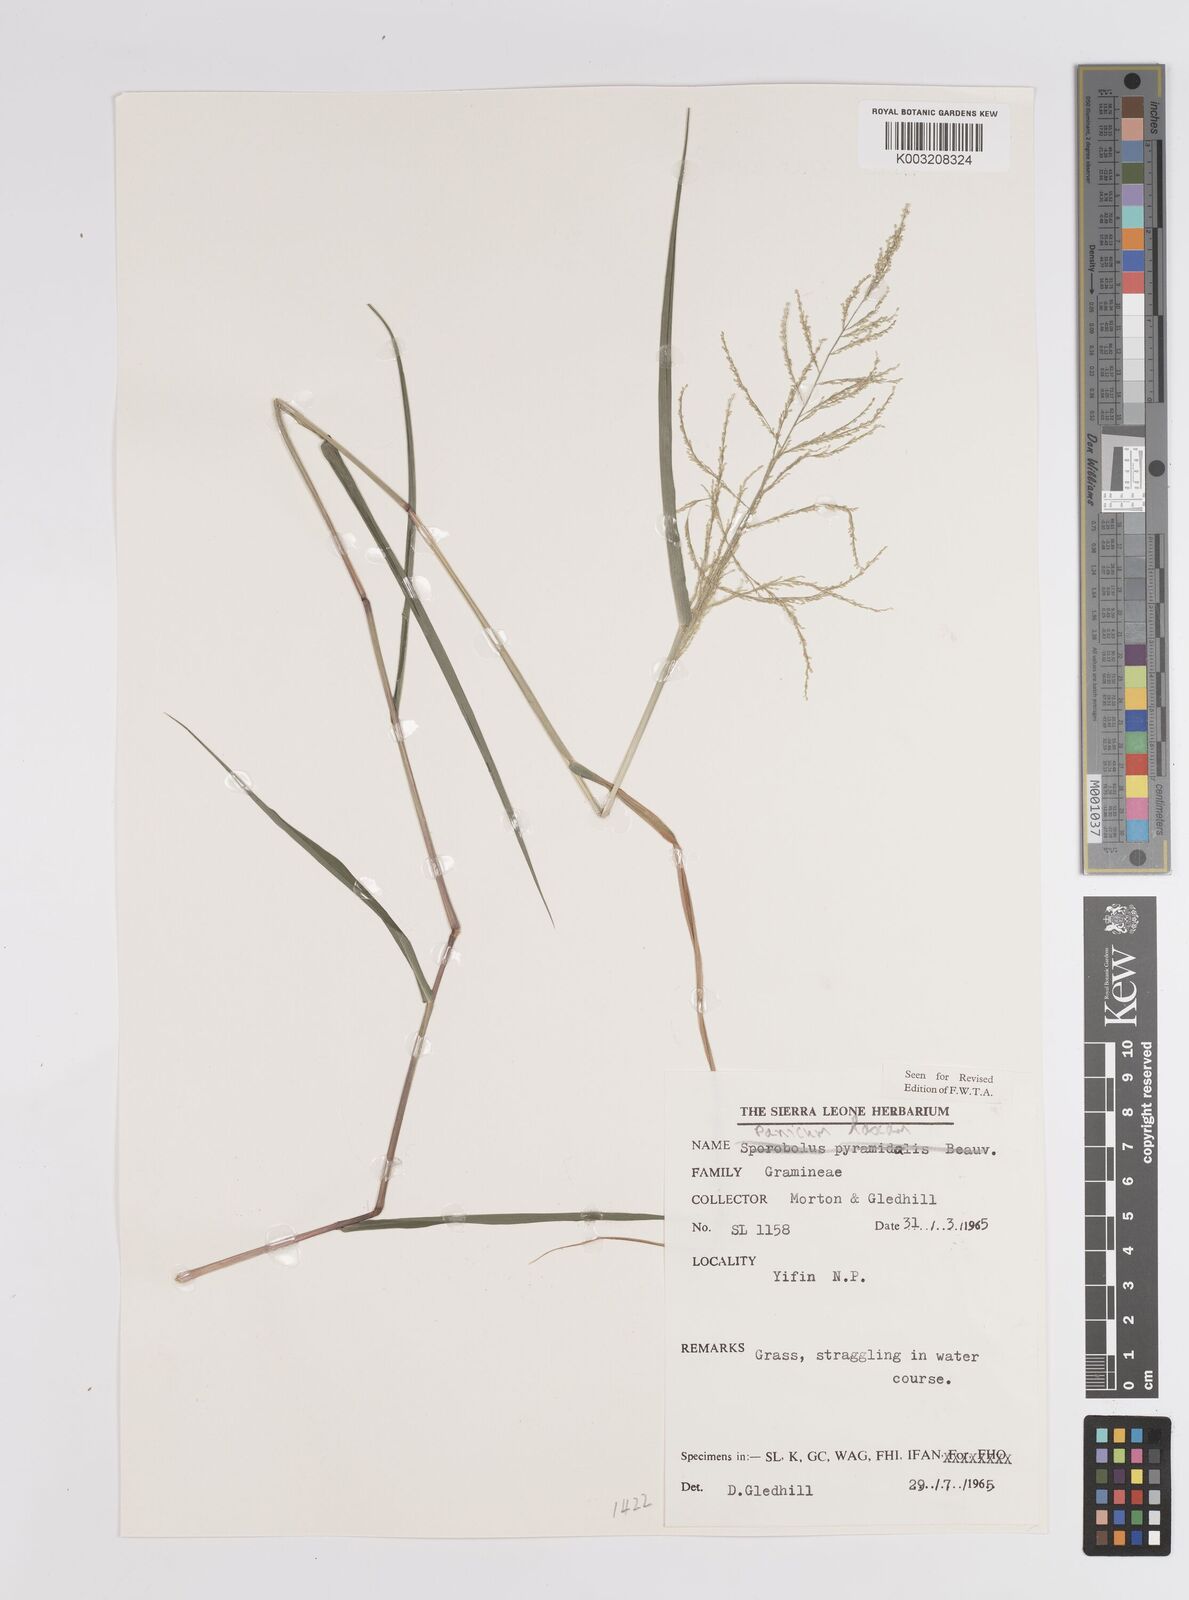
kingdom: Plantae
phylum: Tracheophyta
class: Liliopsida
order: Poales
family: Poaceae
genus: Steinchisma
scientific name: Steinchisma laxum
